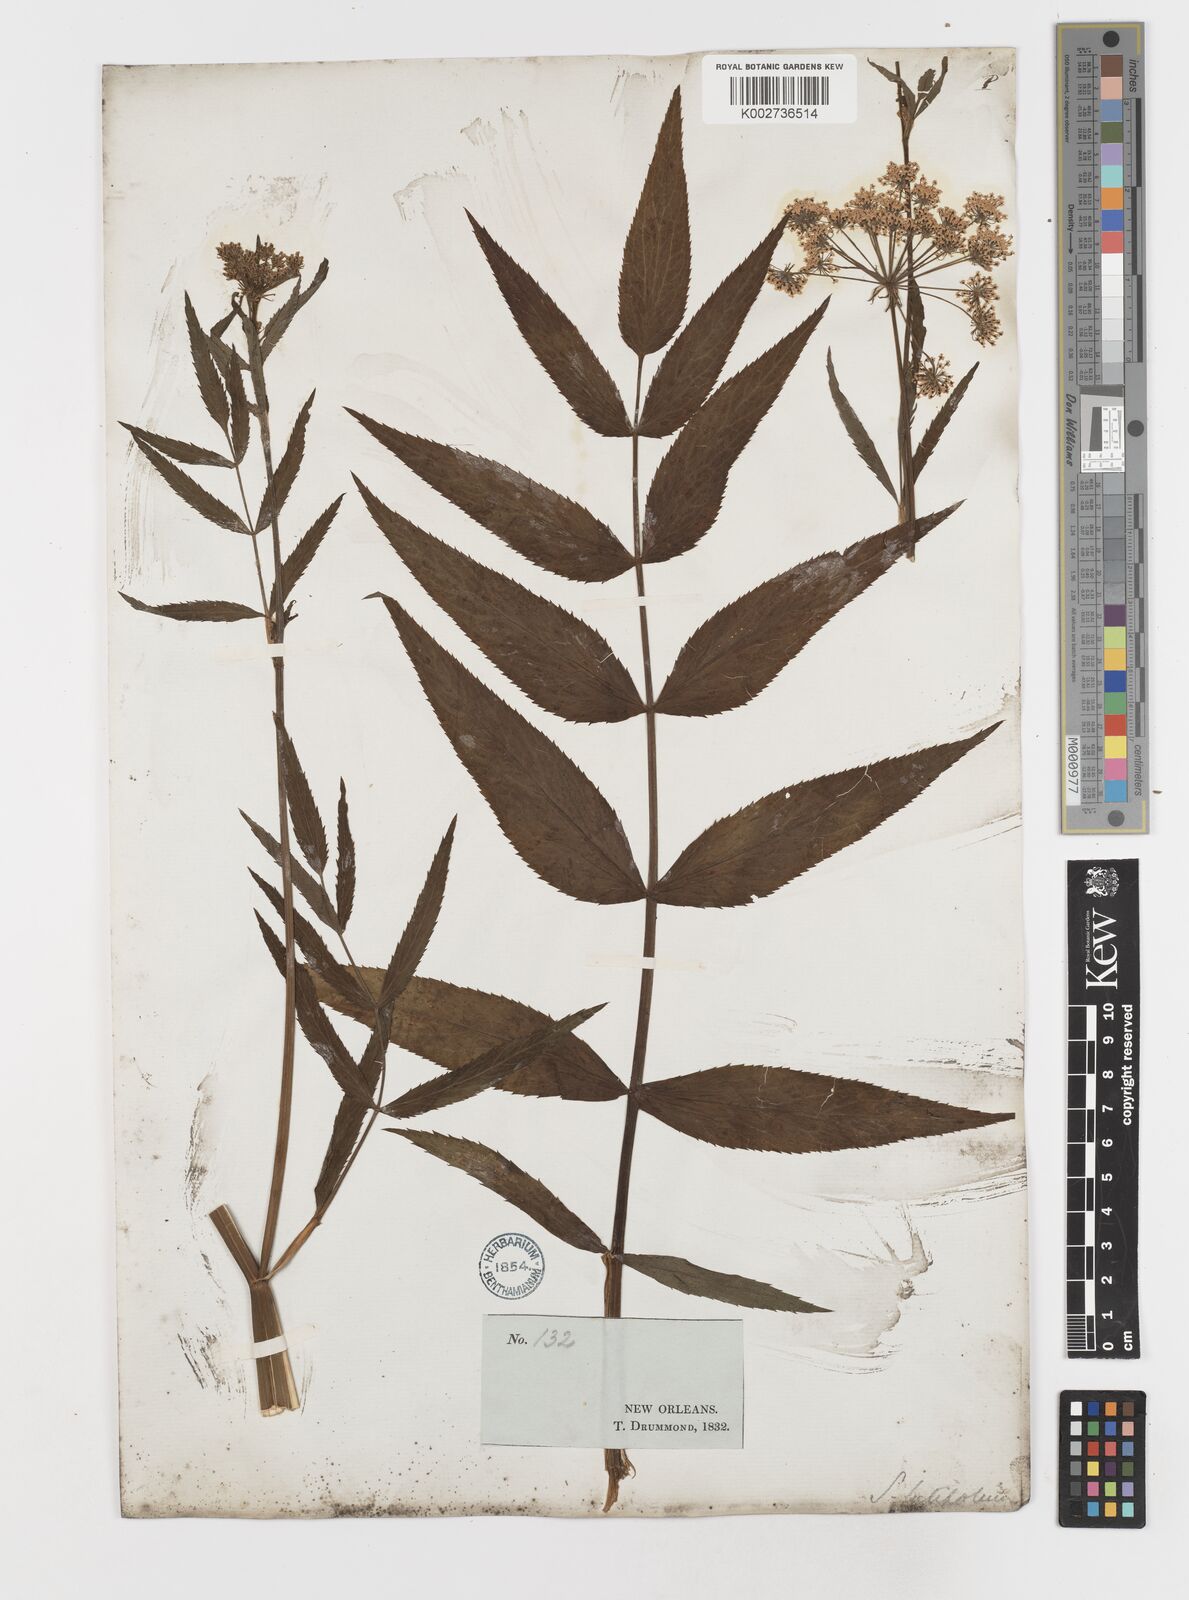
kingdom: Plantae
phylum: Tracheophyta
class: Magnoliopsida
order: Apiales
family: Apiaceae
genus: Sium
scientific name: Sium suave
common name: Hemlock water-parsnip
